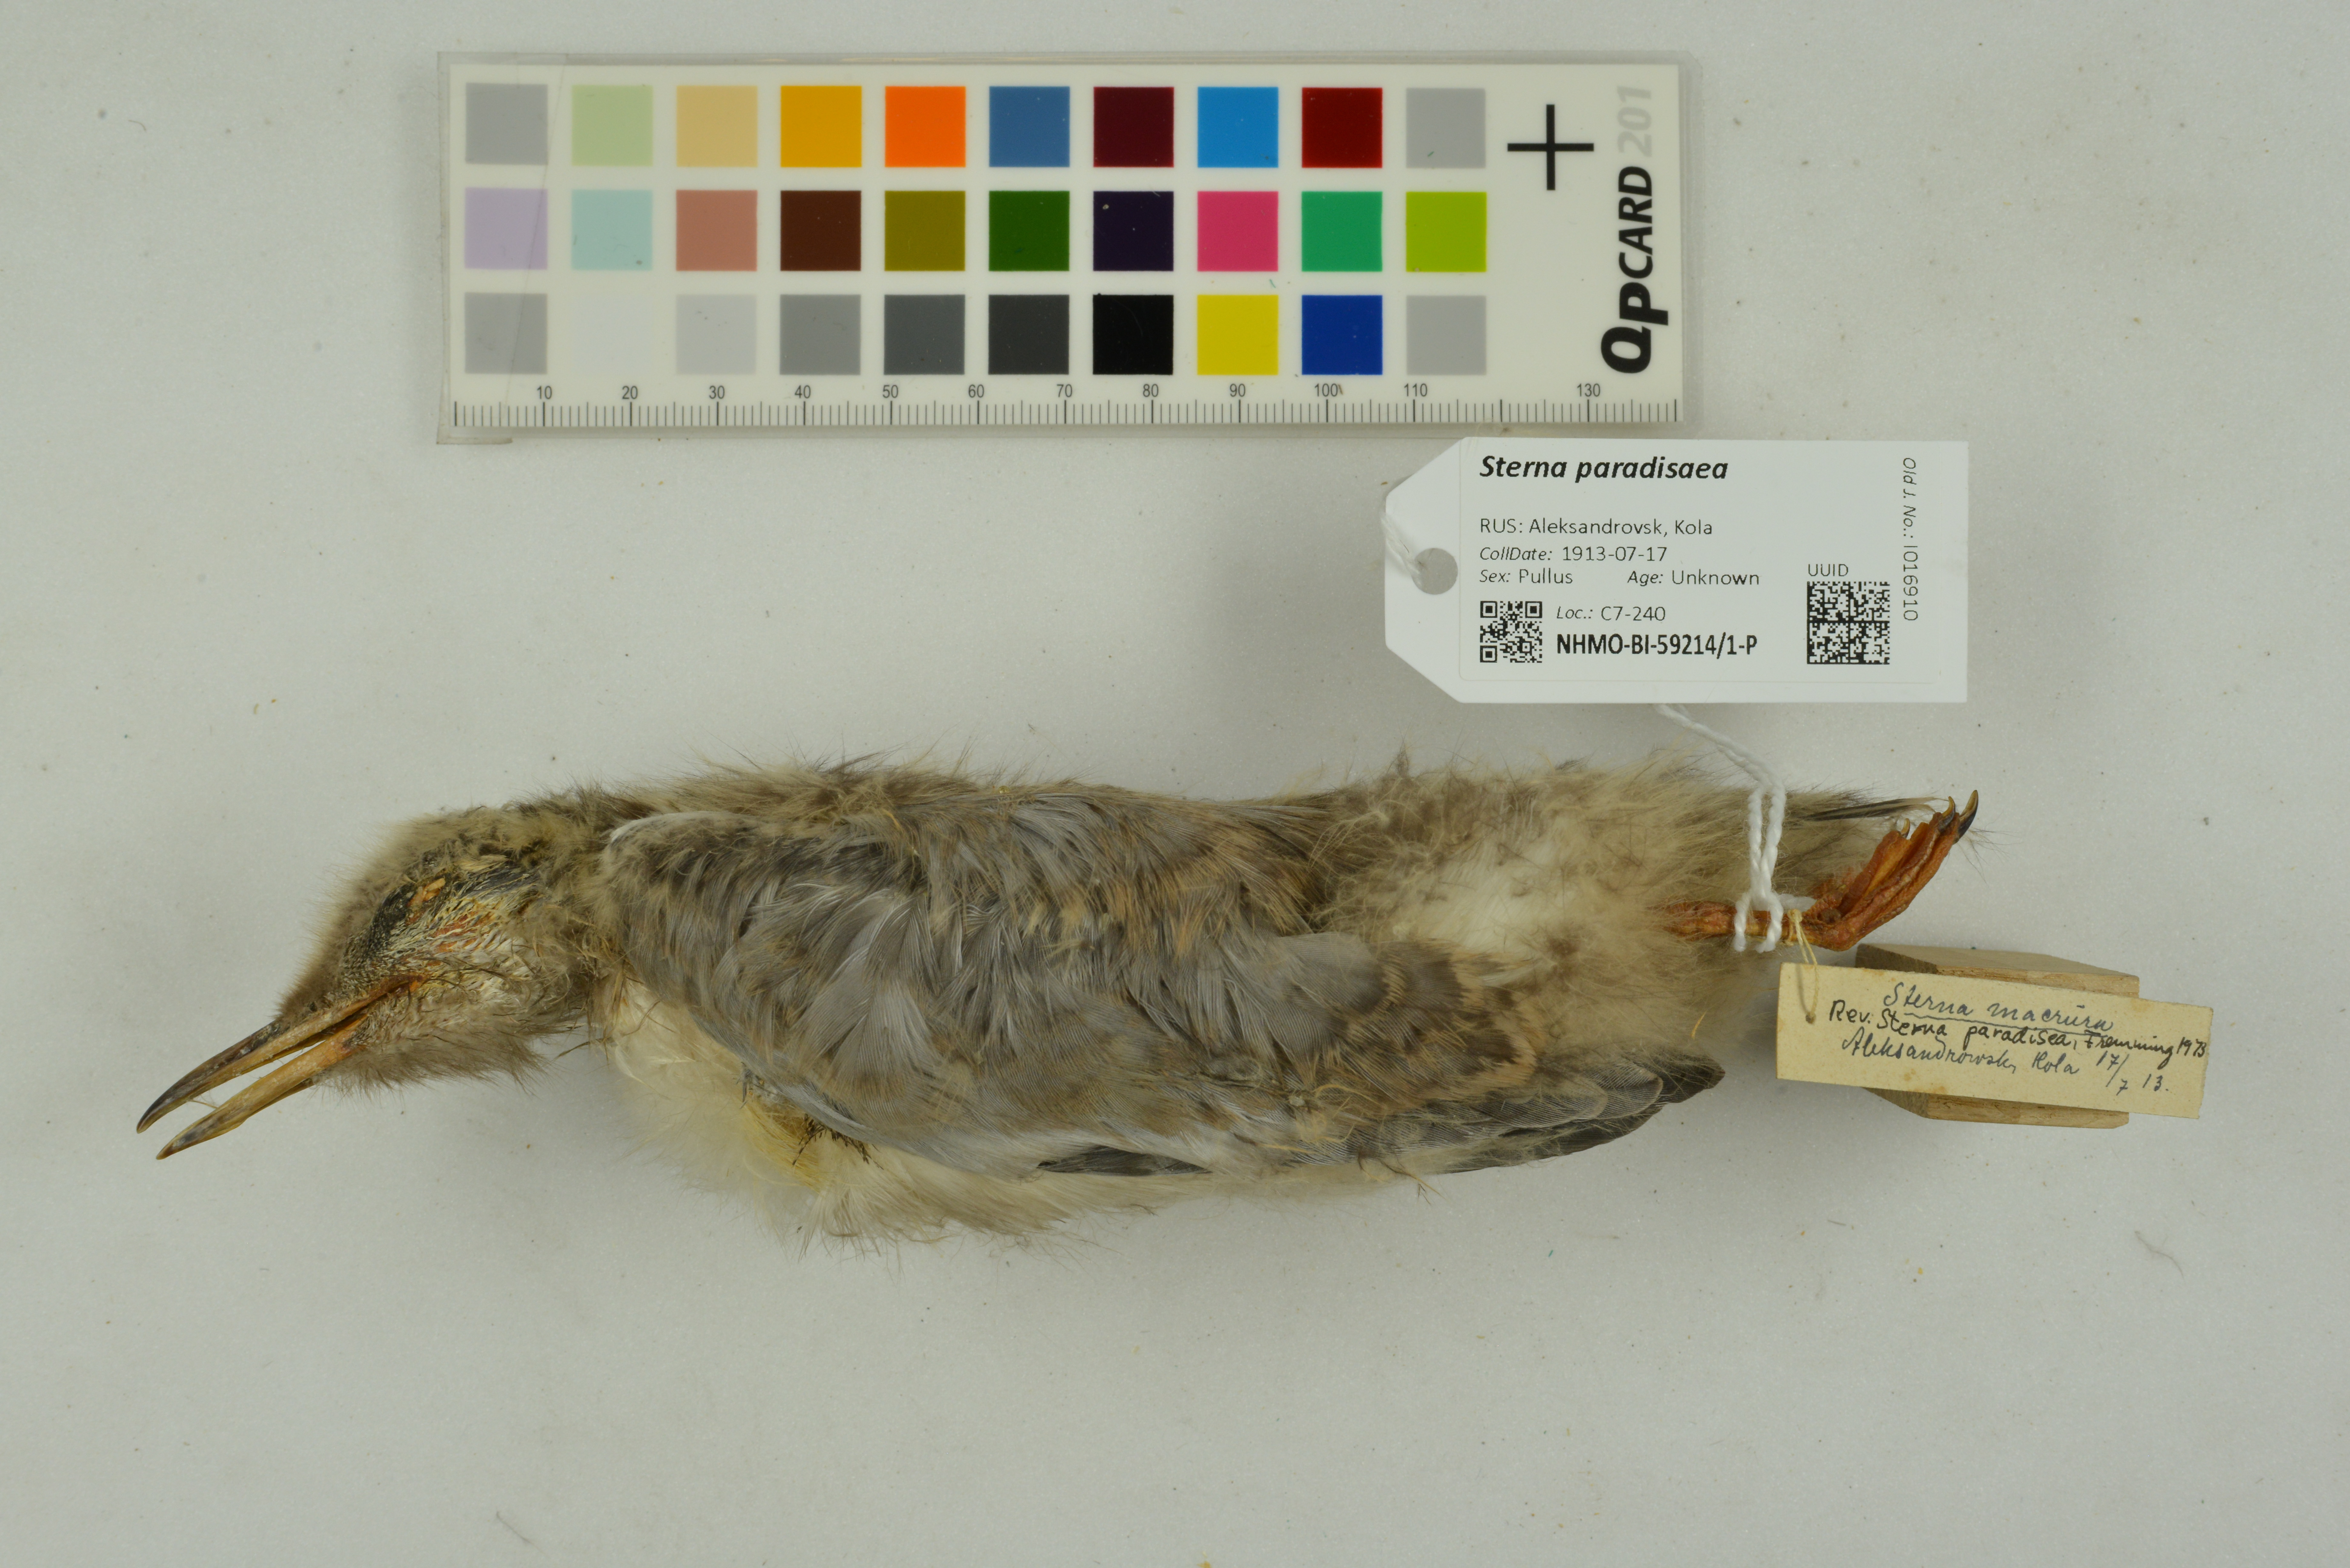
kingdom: Animalia
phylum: Chordata
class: Aves
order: Charadriiformes
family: Laridae
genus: Sterna
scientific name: Sterna paradisaea
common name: Arctic tern
